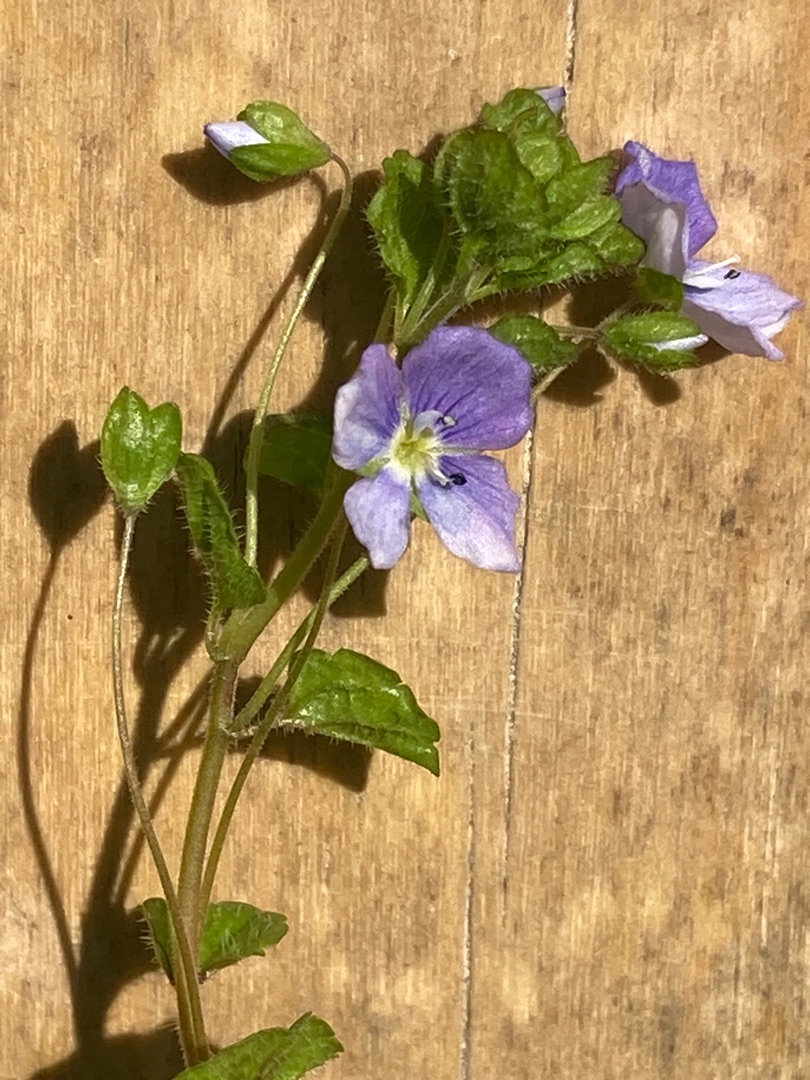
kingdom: Plantae
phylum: Tracheophyta
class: Magnoliopsida
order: Lamiales
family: Plantaginaceae
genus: Veronica
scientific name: Veronica filiformis
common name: Tråd-ærenpris
